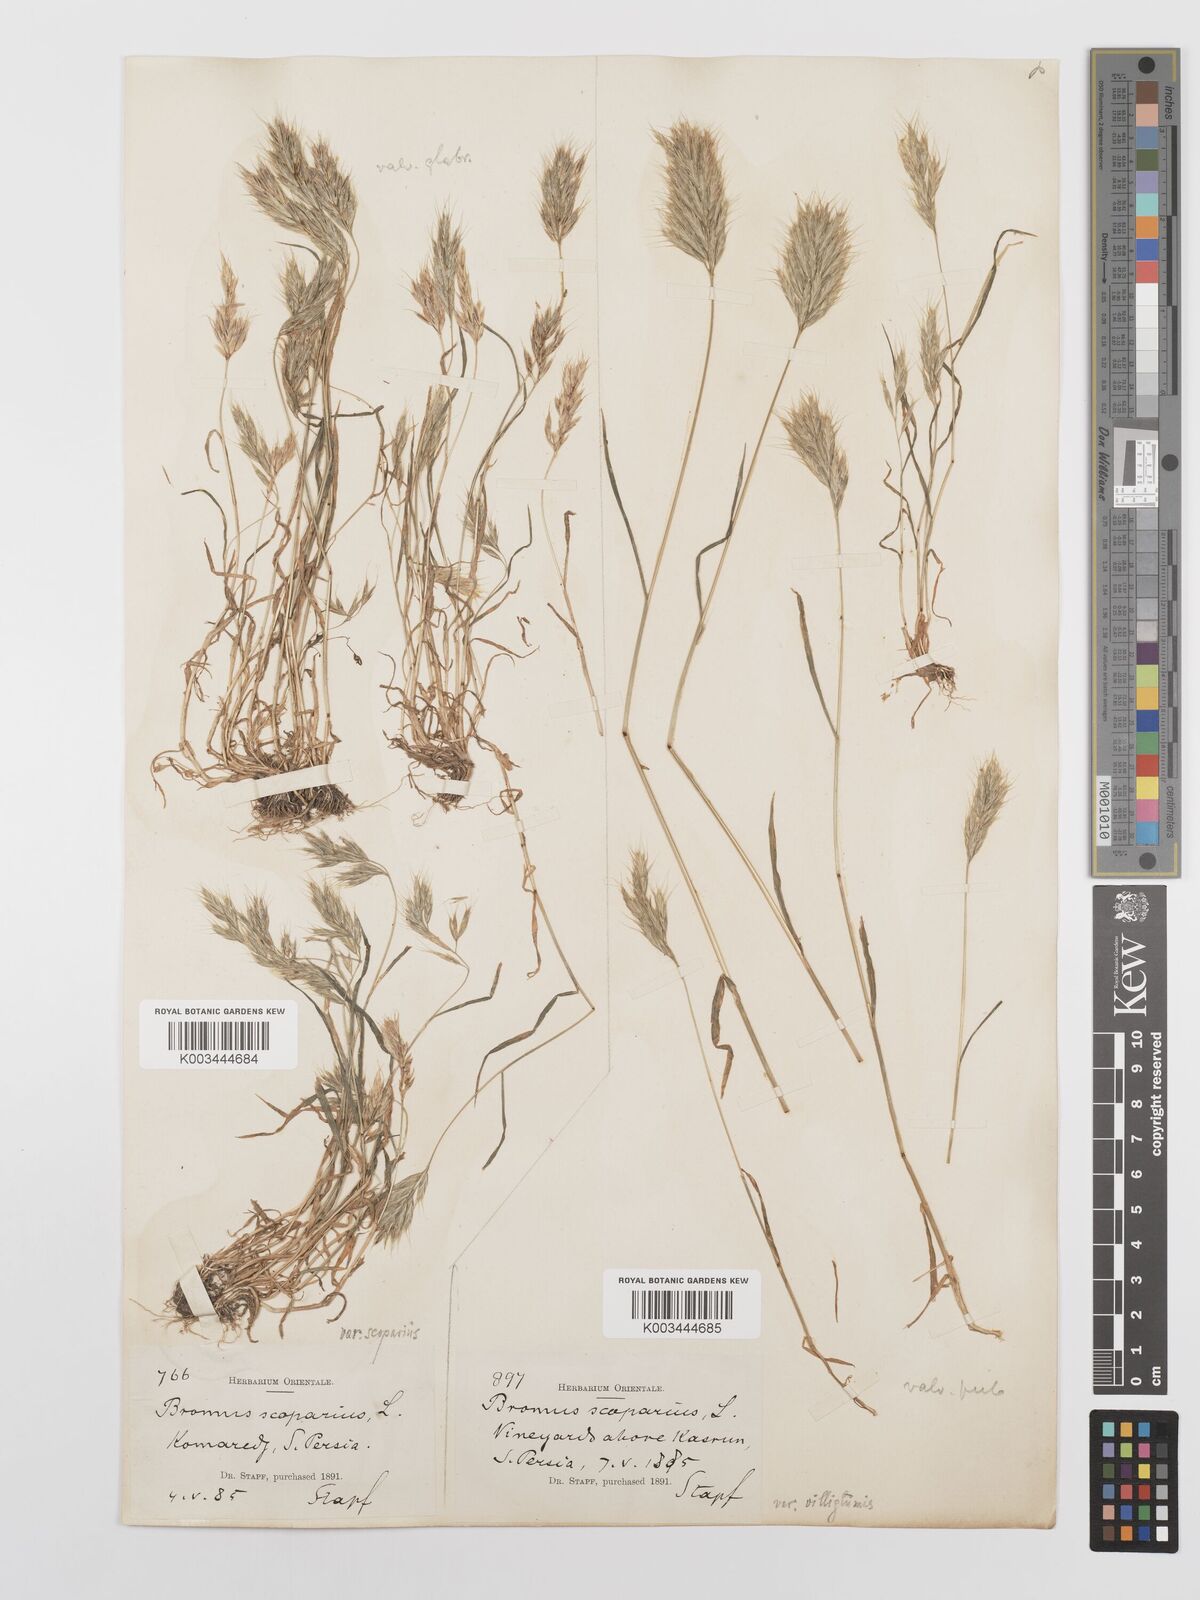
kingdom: Plantae
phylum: Tracheophyta
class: Liliopsida
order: Poales
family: Poaceae
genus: Bromus
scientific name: Bromus scoparius
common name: Broom brome
